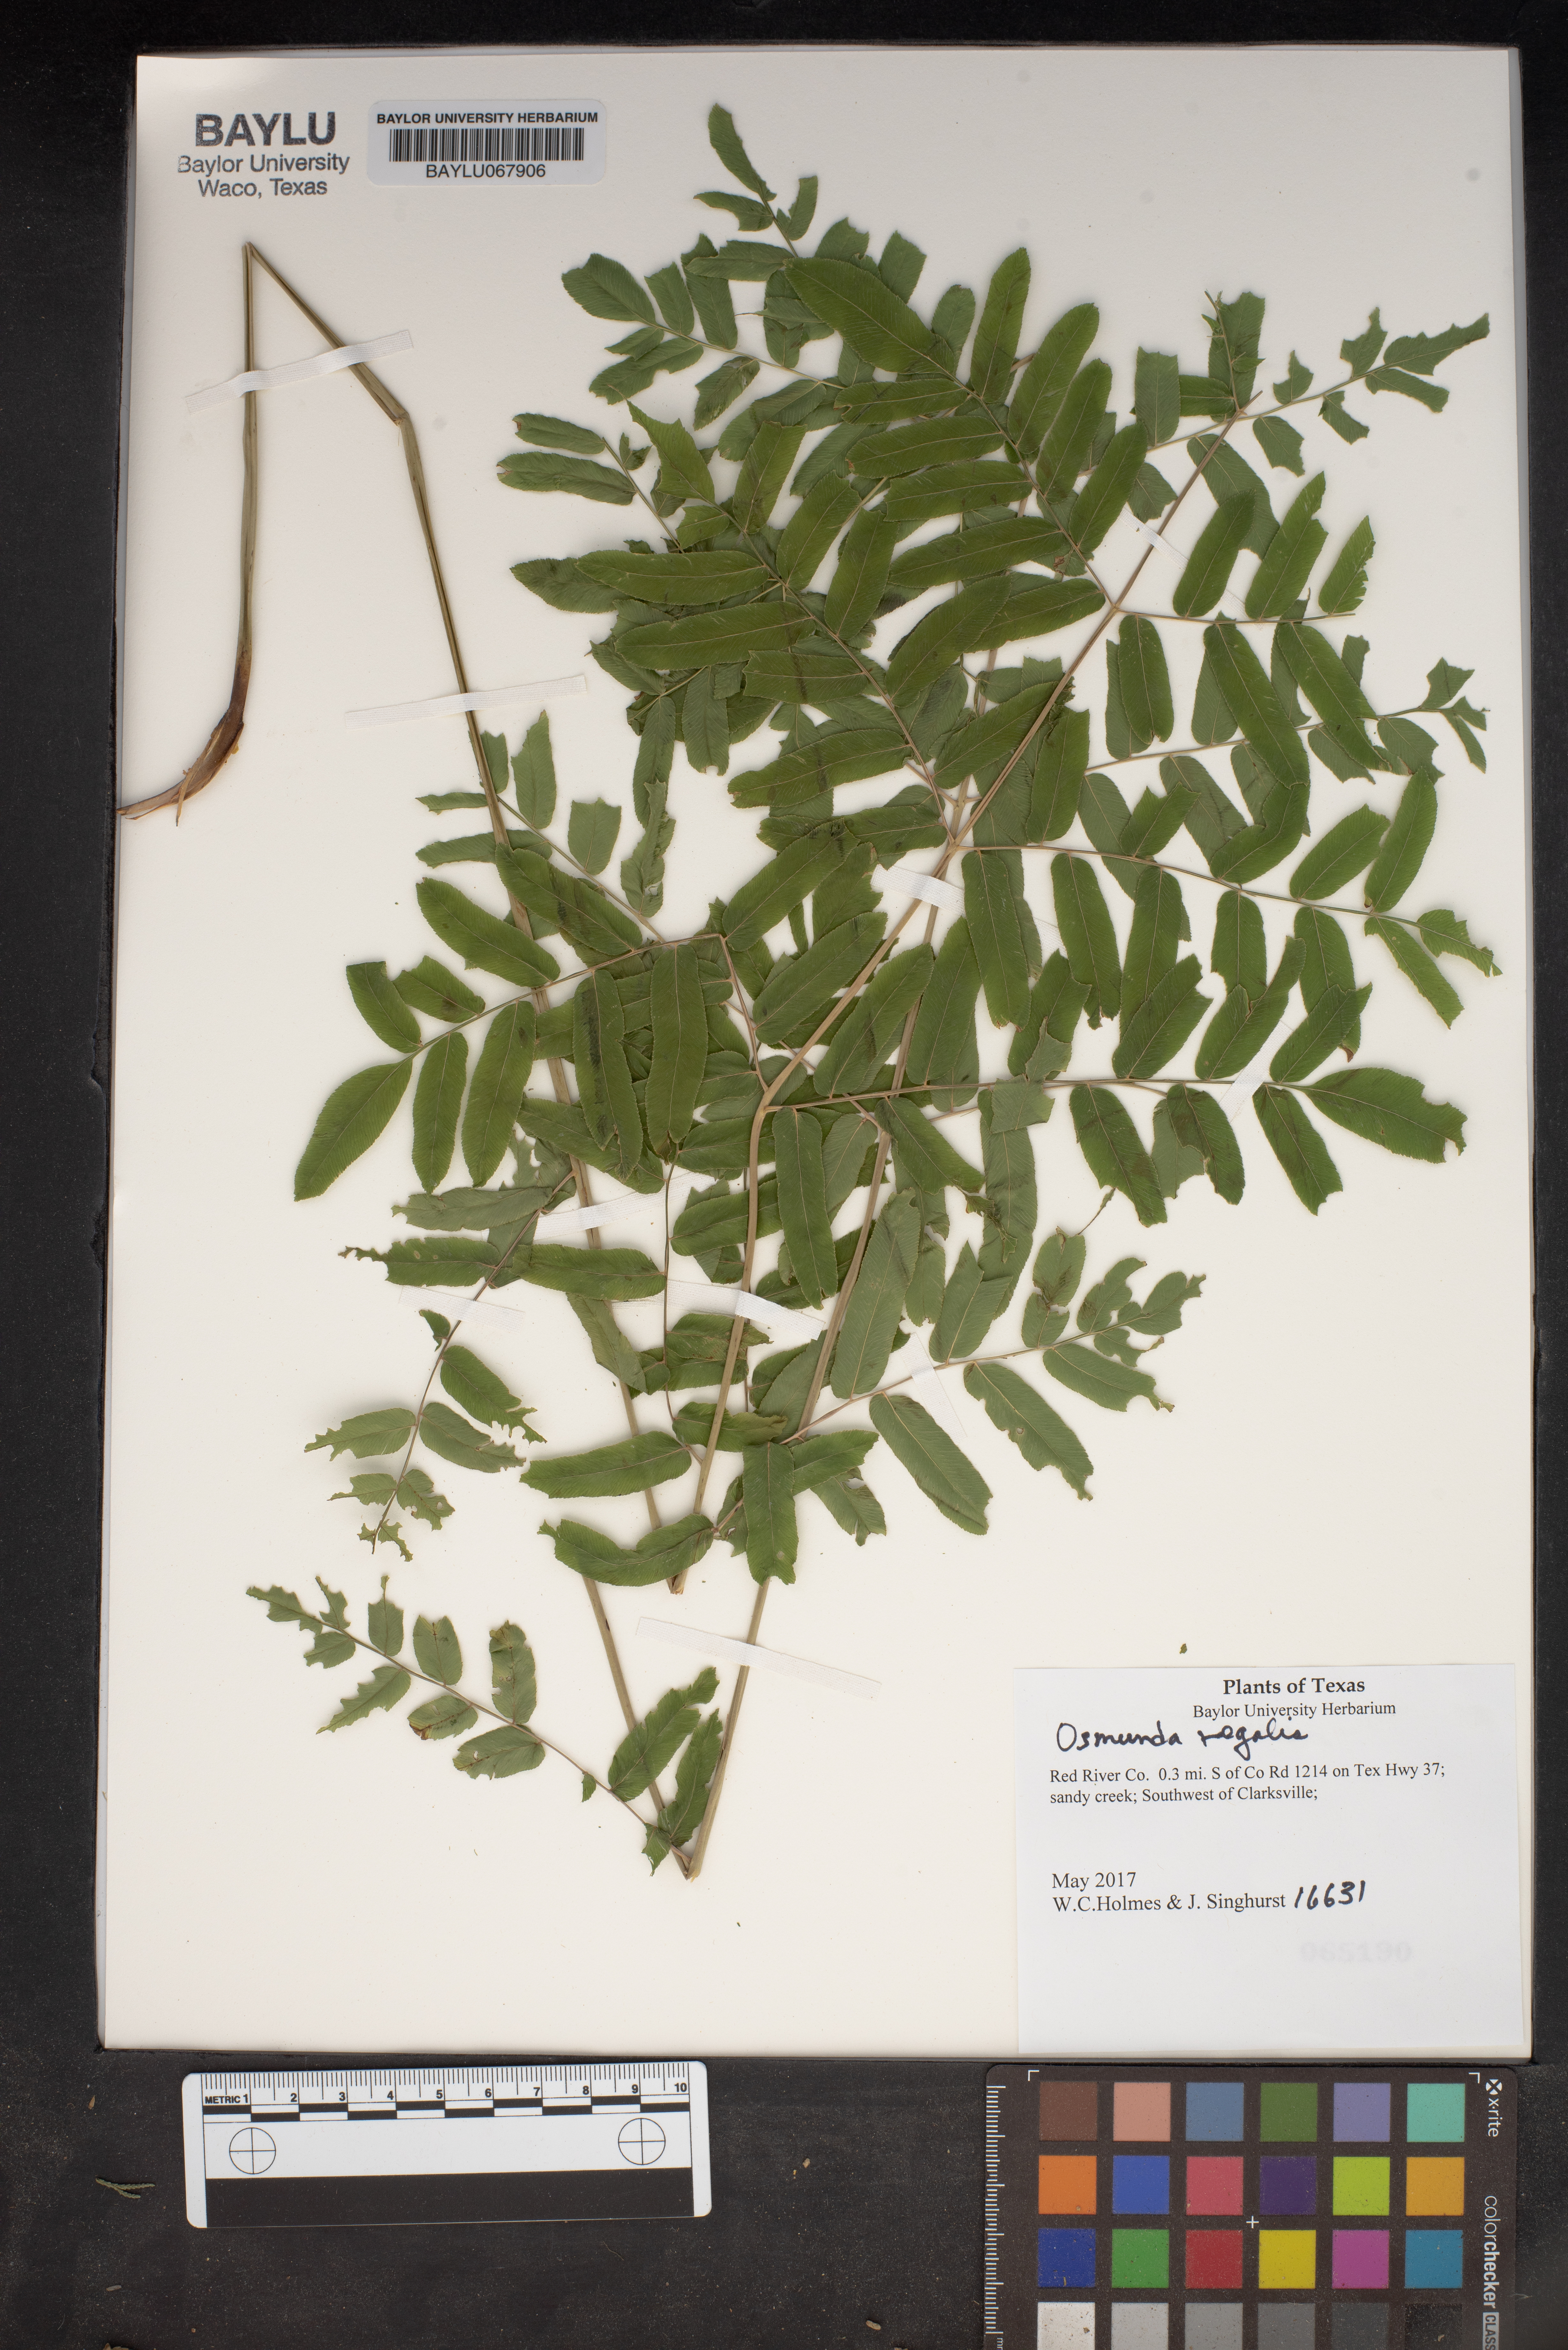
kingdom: Plantae
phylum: Tracheophyta
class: Polypodiopsida
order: Osmundales
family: Osmundaceae
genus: Osmunda
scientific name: Osmunda regalis
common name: Royal fern
